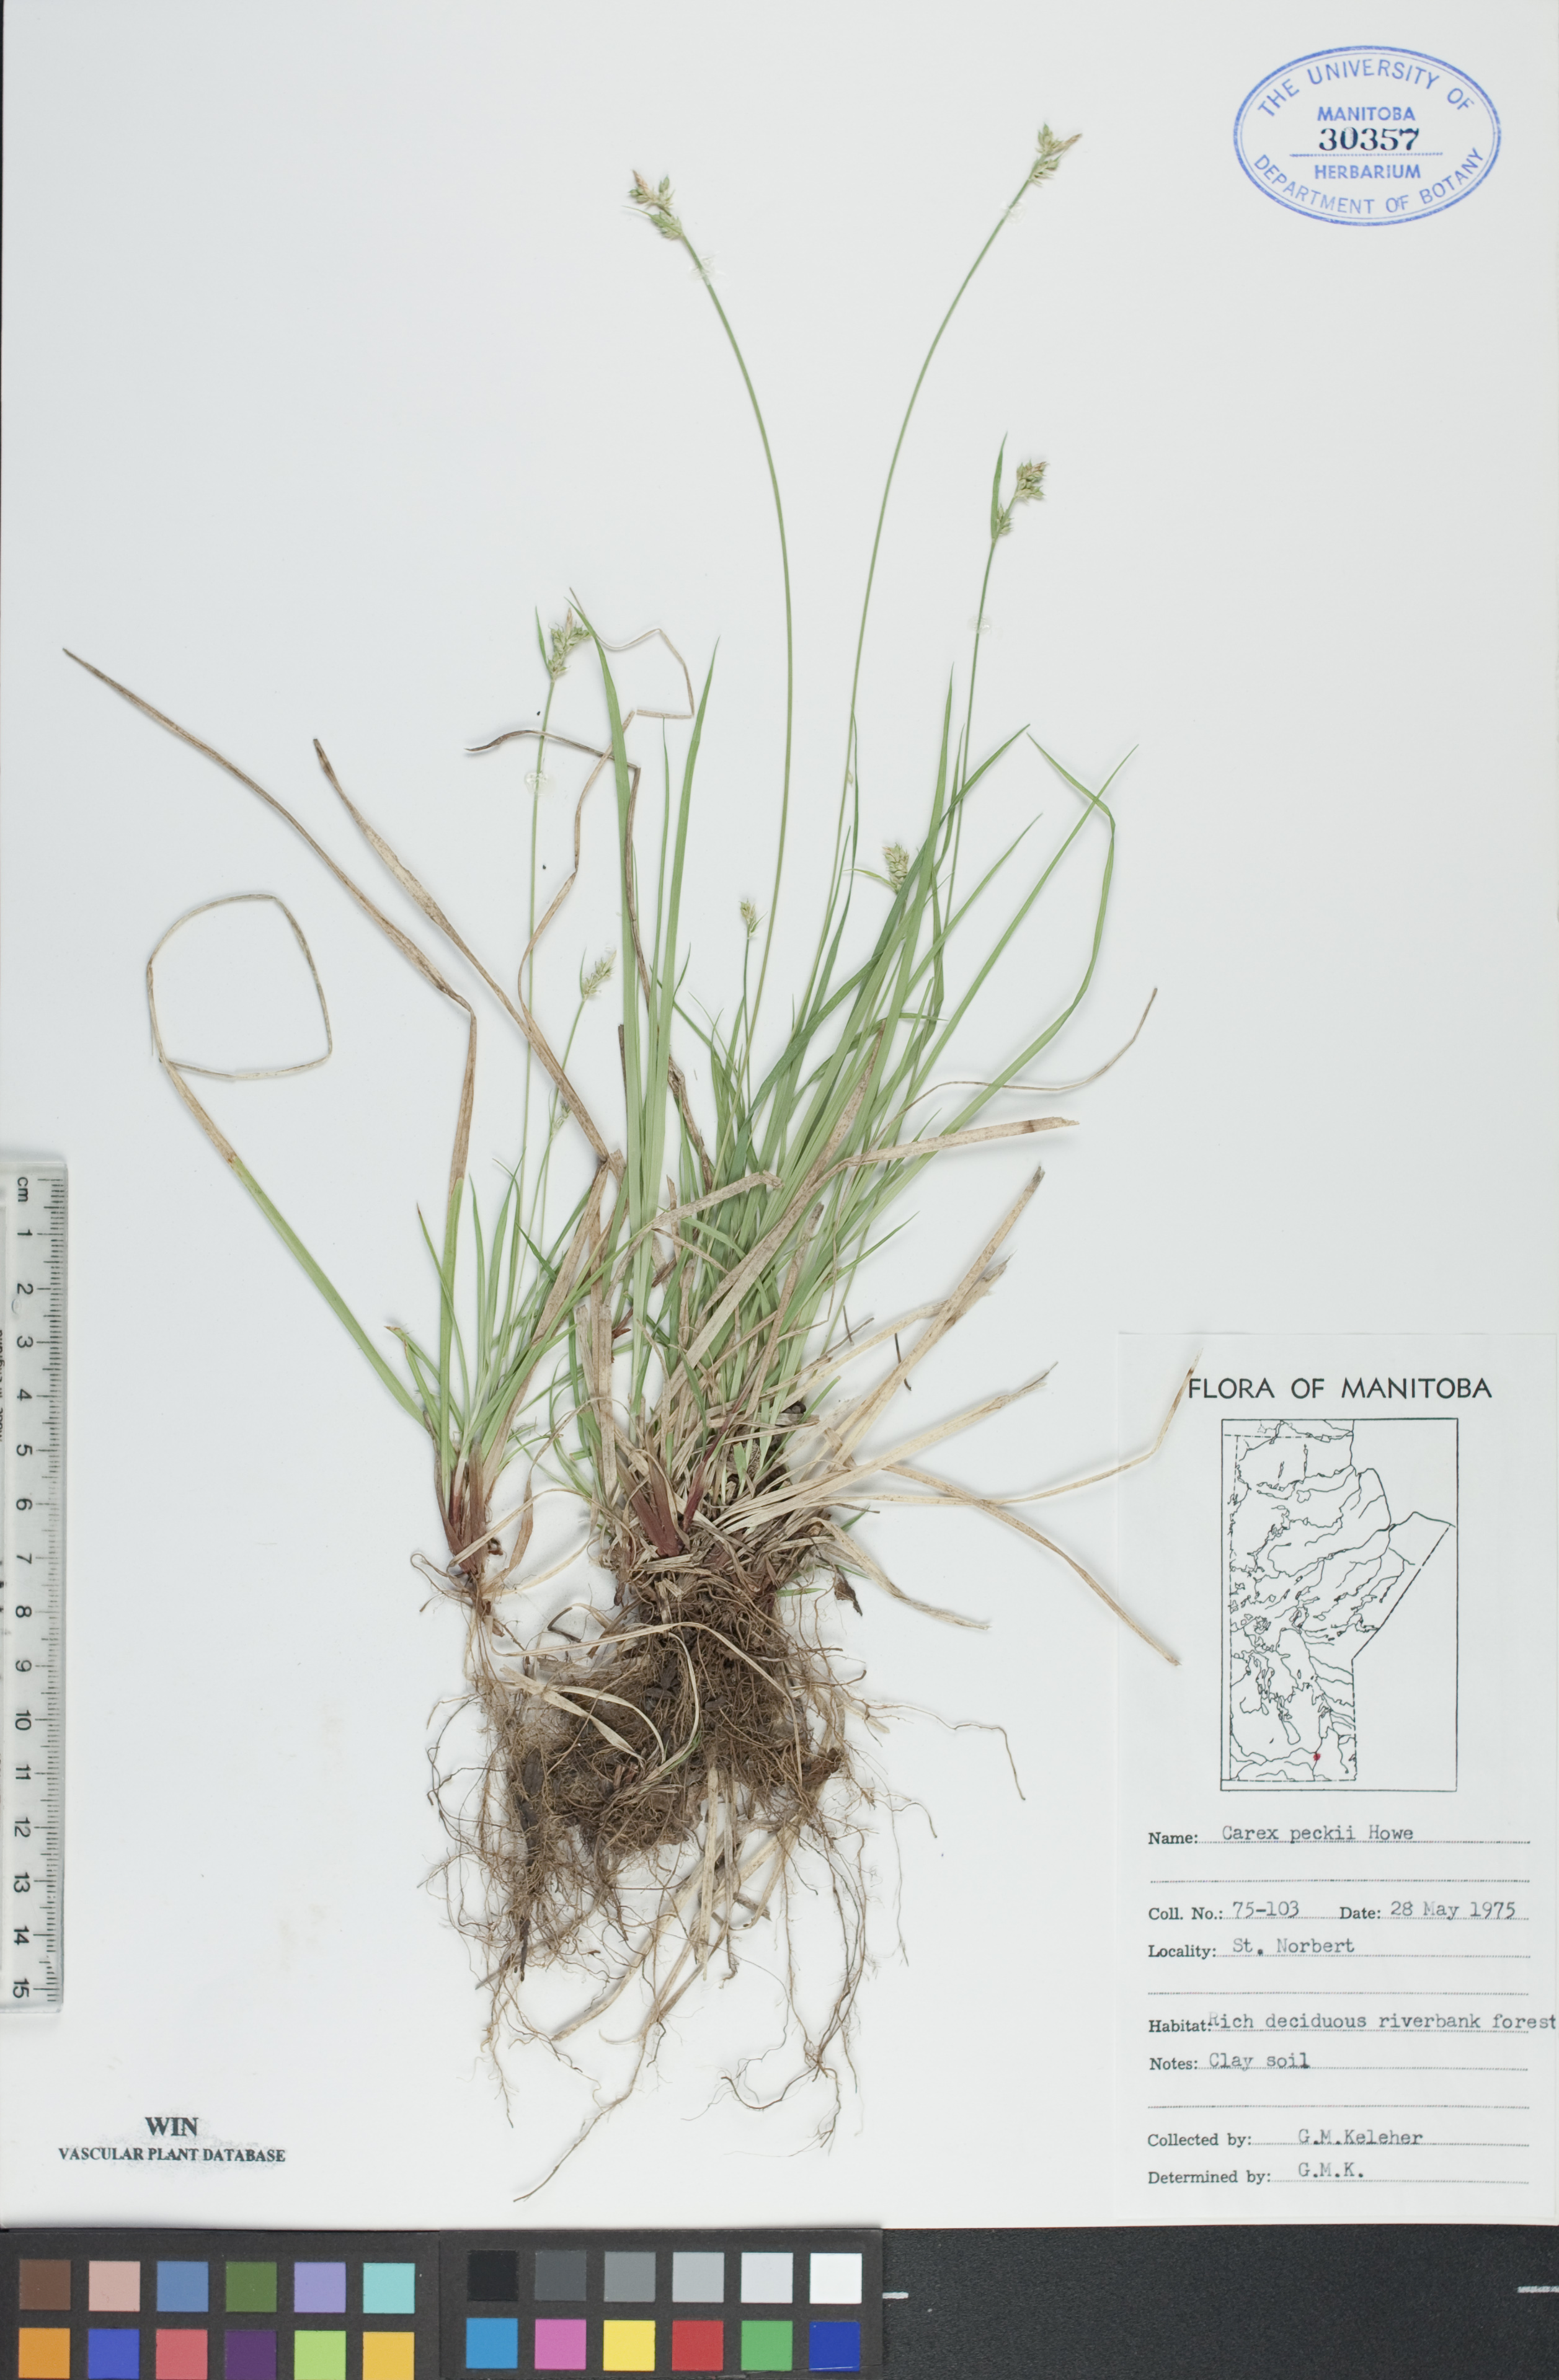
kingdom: Plantae
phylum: Tracheophyta
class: Liliopsida
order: Poales
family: Cyperaceae
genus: Carex
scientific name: Carex peckii
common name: Peck's oak sedge
